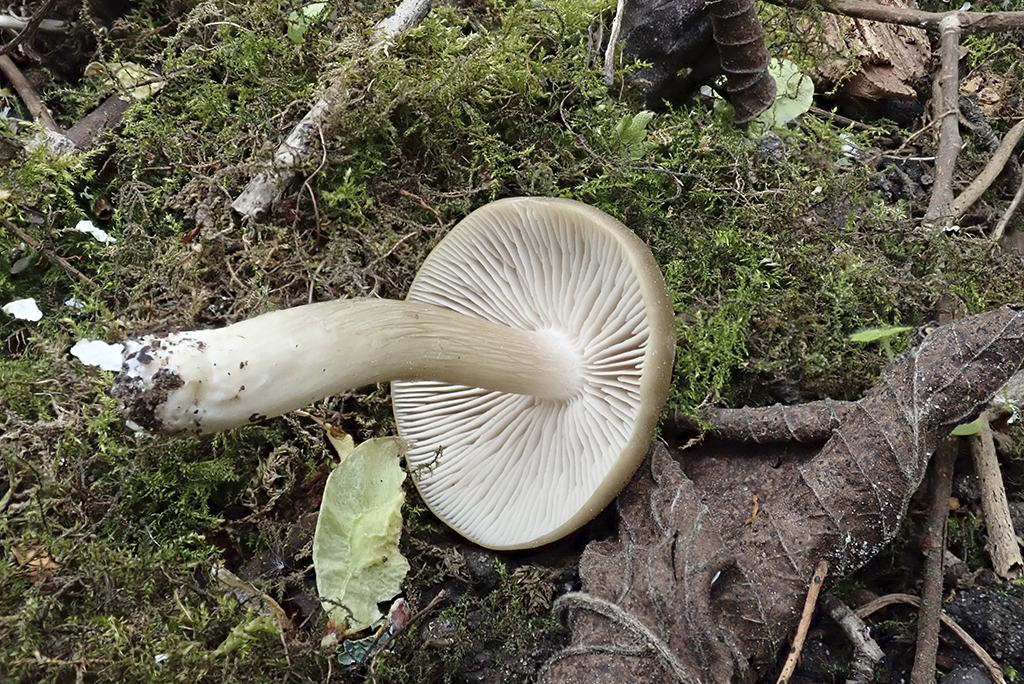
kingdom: Fungi
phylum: Basidiomycota
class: Agaricomycetes
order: Agaricales
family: Tricholomataceae
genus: Megacollybia
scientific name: Megacollybia platyphylla
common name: bredbladet væbnerhat
